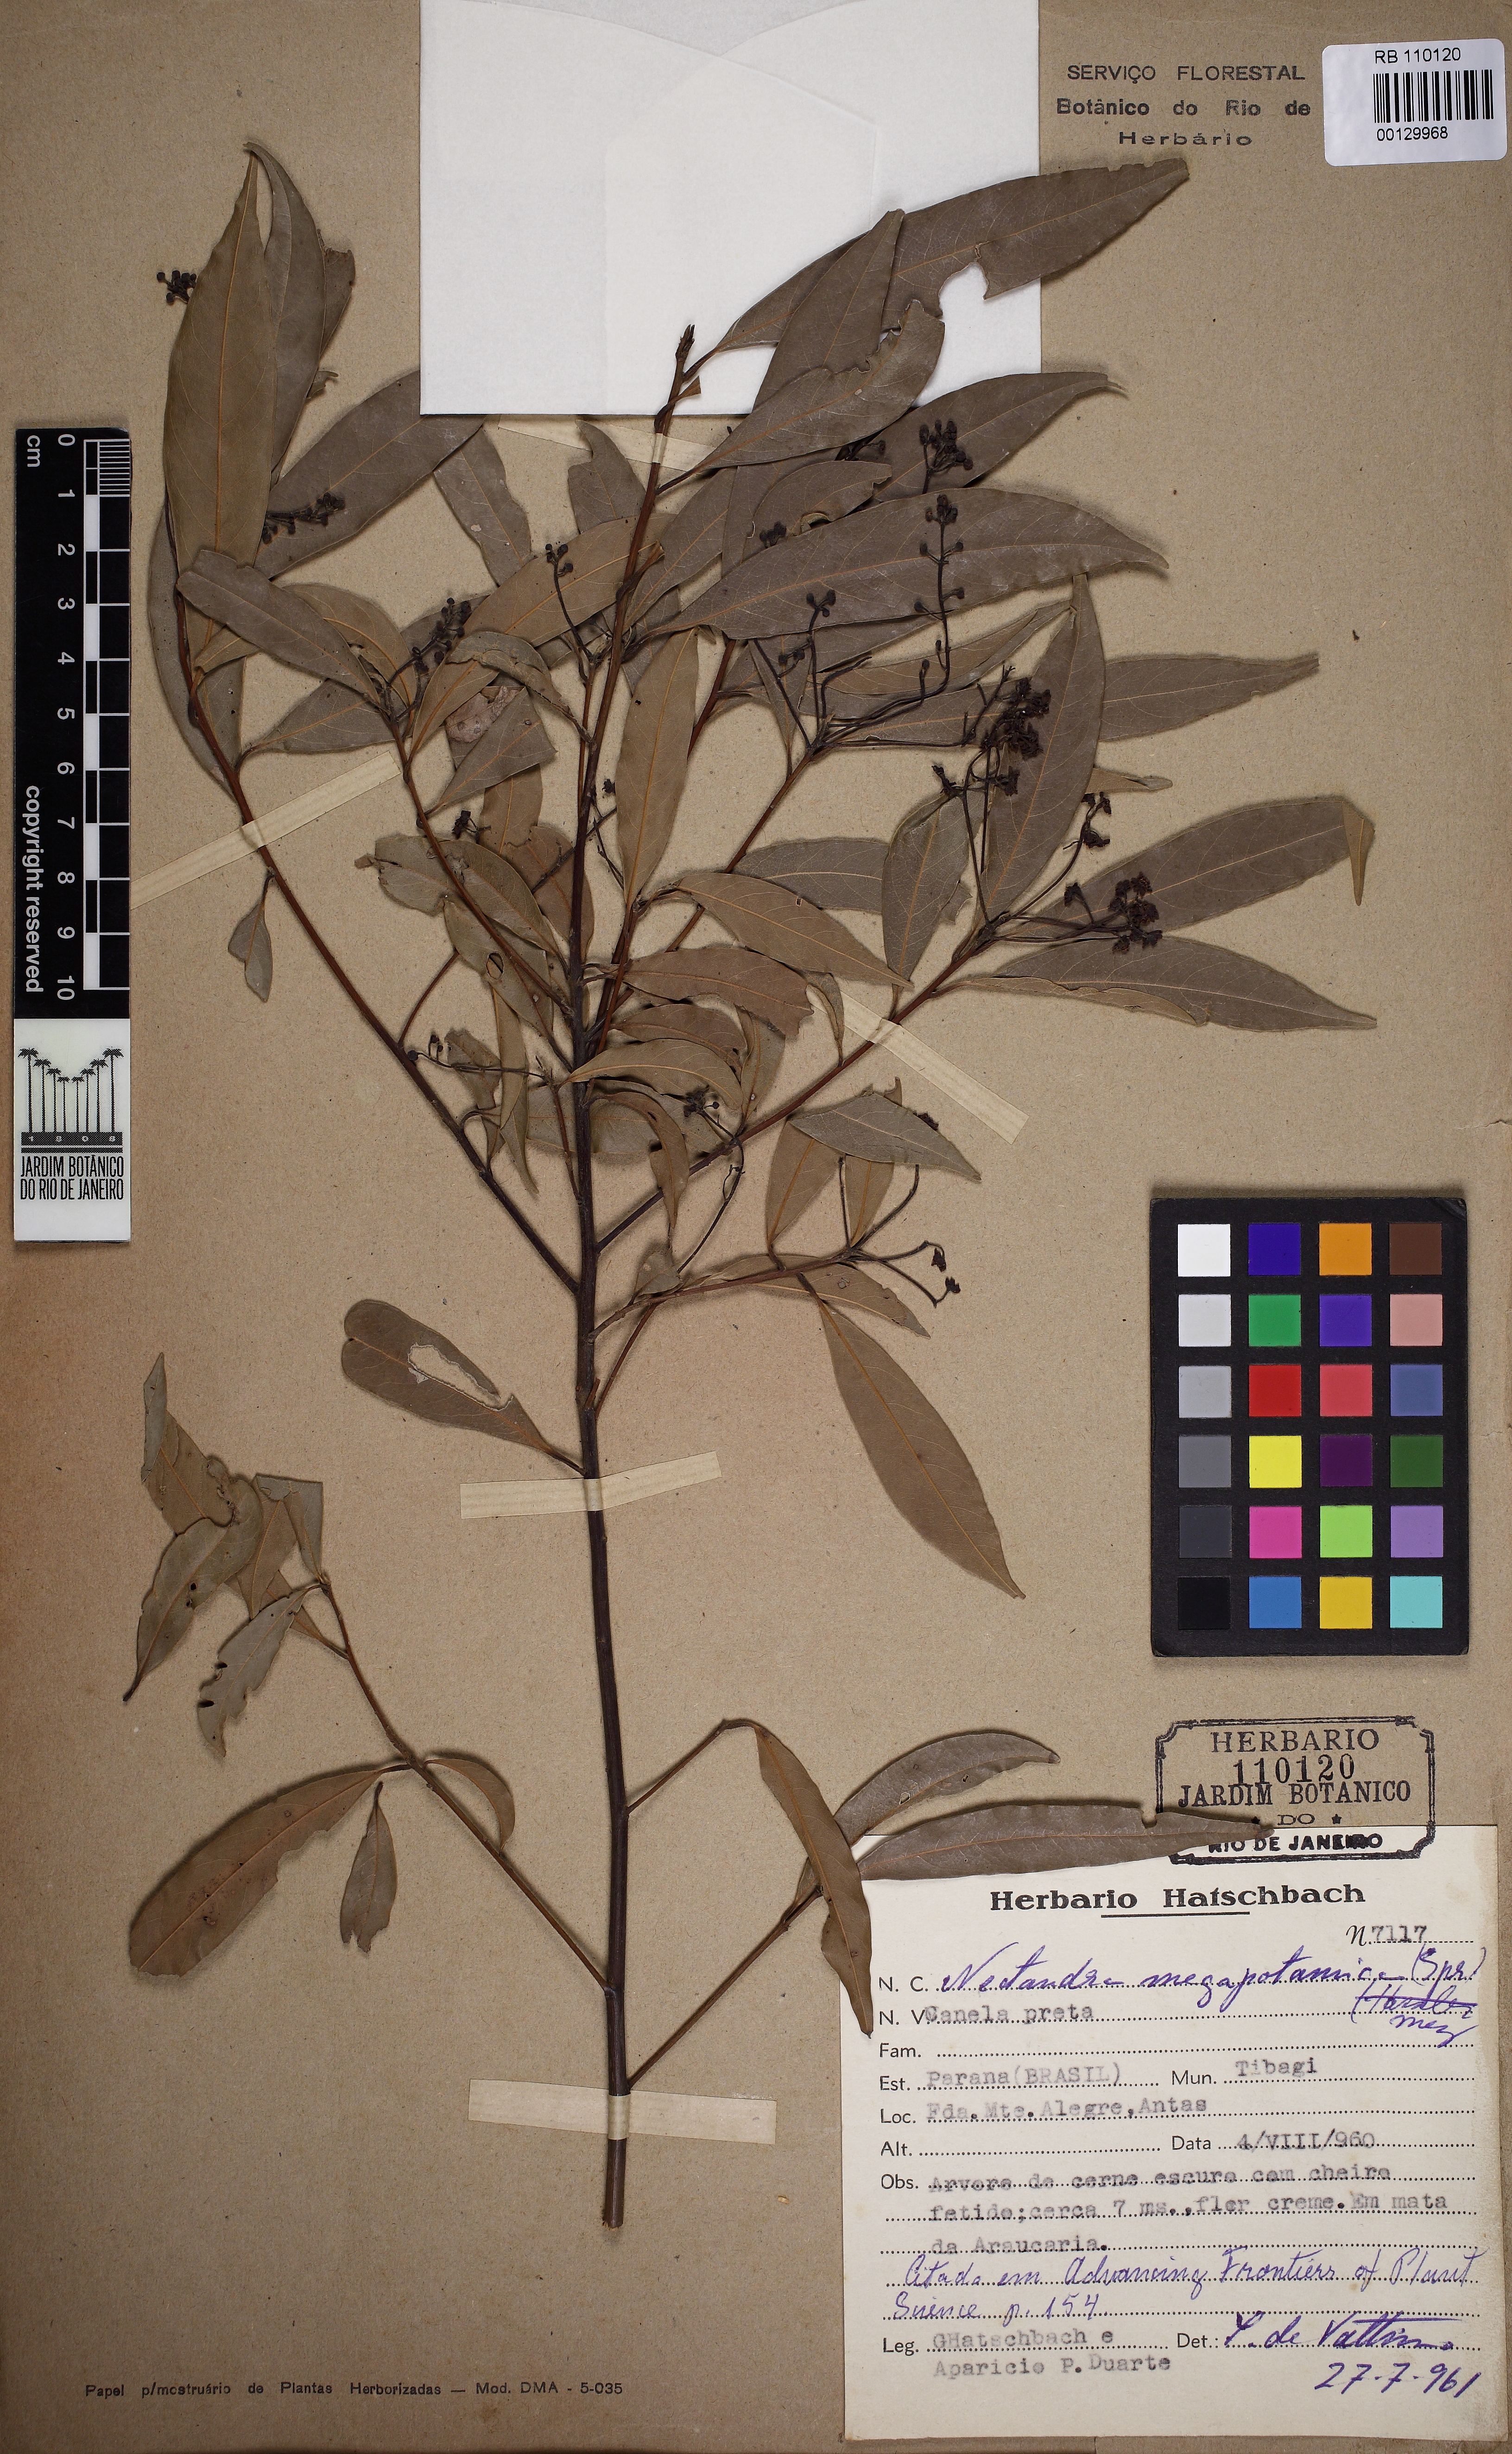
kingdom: Plantae
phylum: Tracheophyta
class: Magnoliopsida
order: Laurales
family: Lauraceae
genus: Nectandra
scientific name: Nectandra megapotamica
